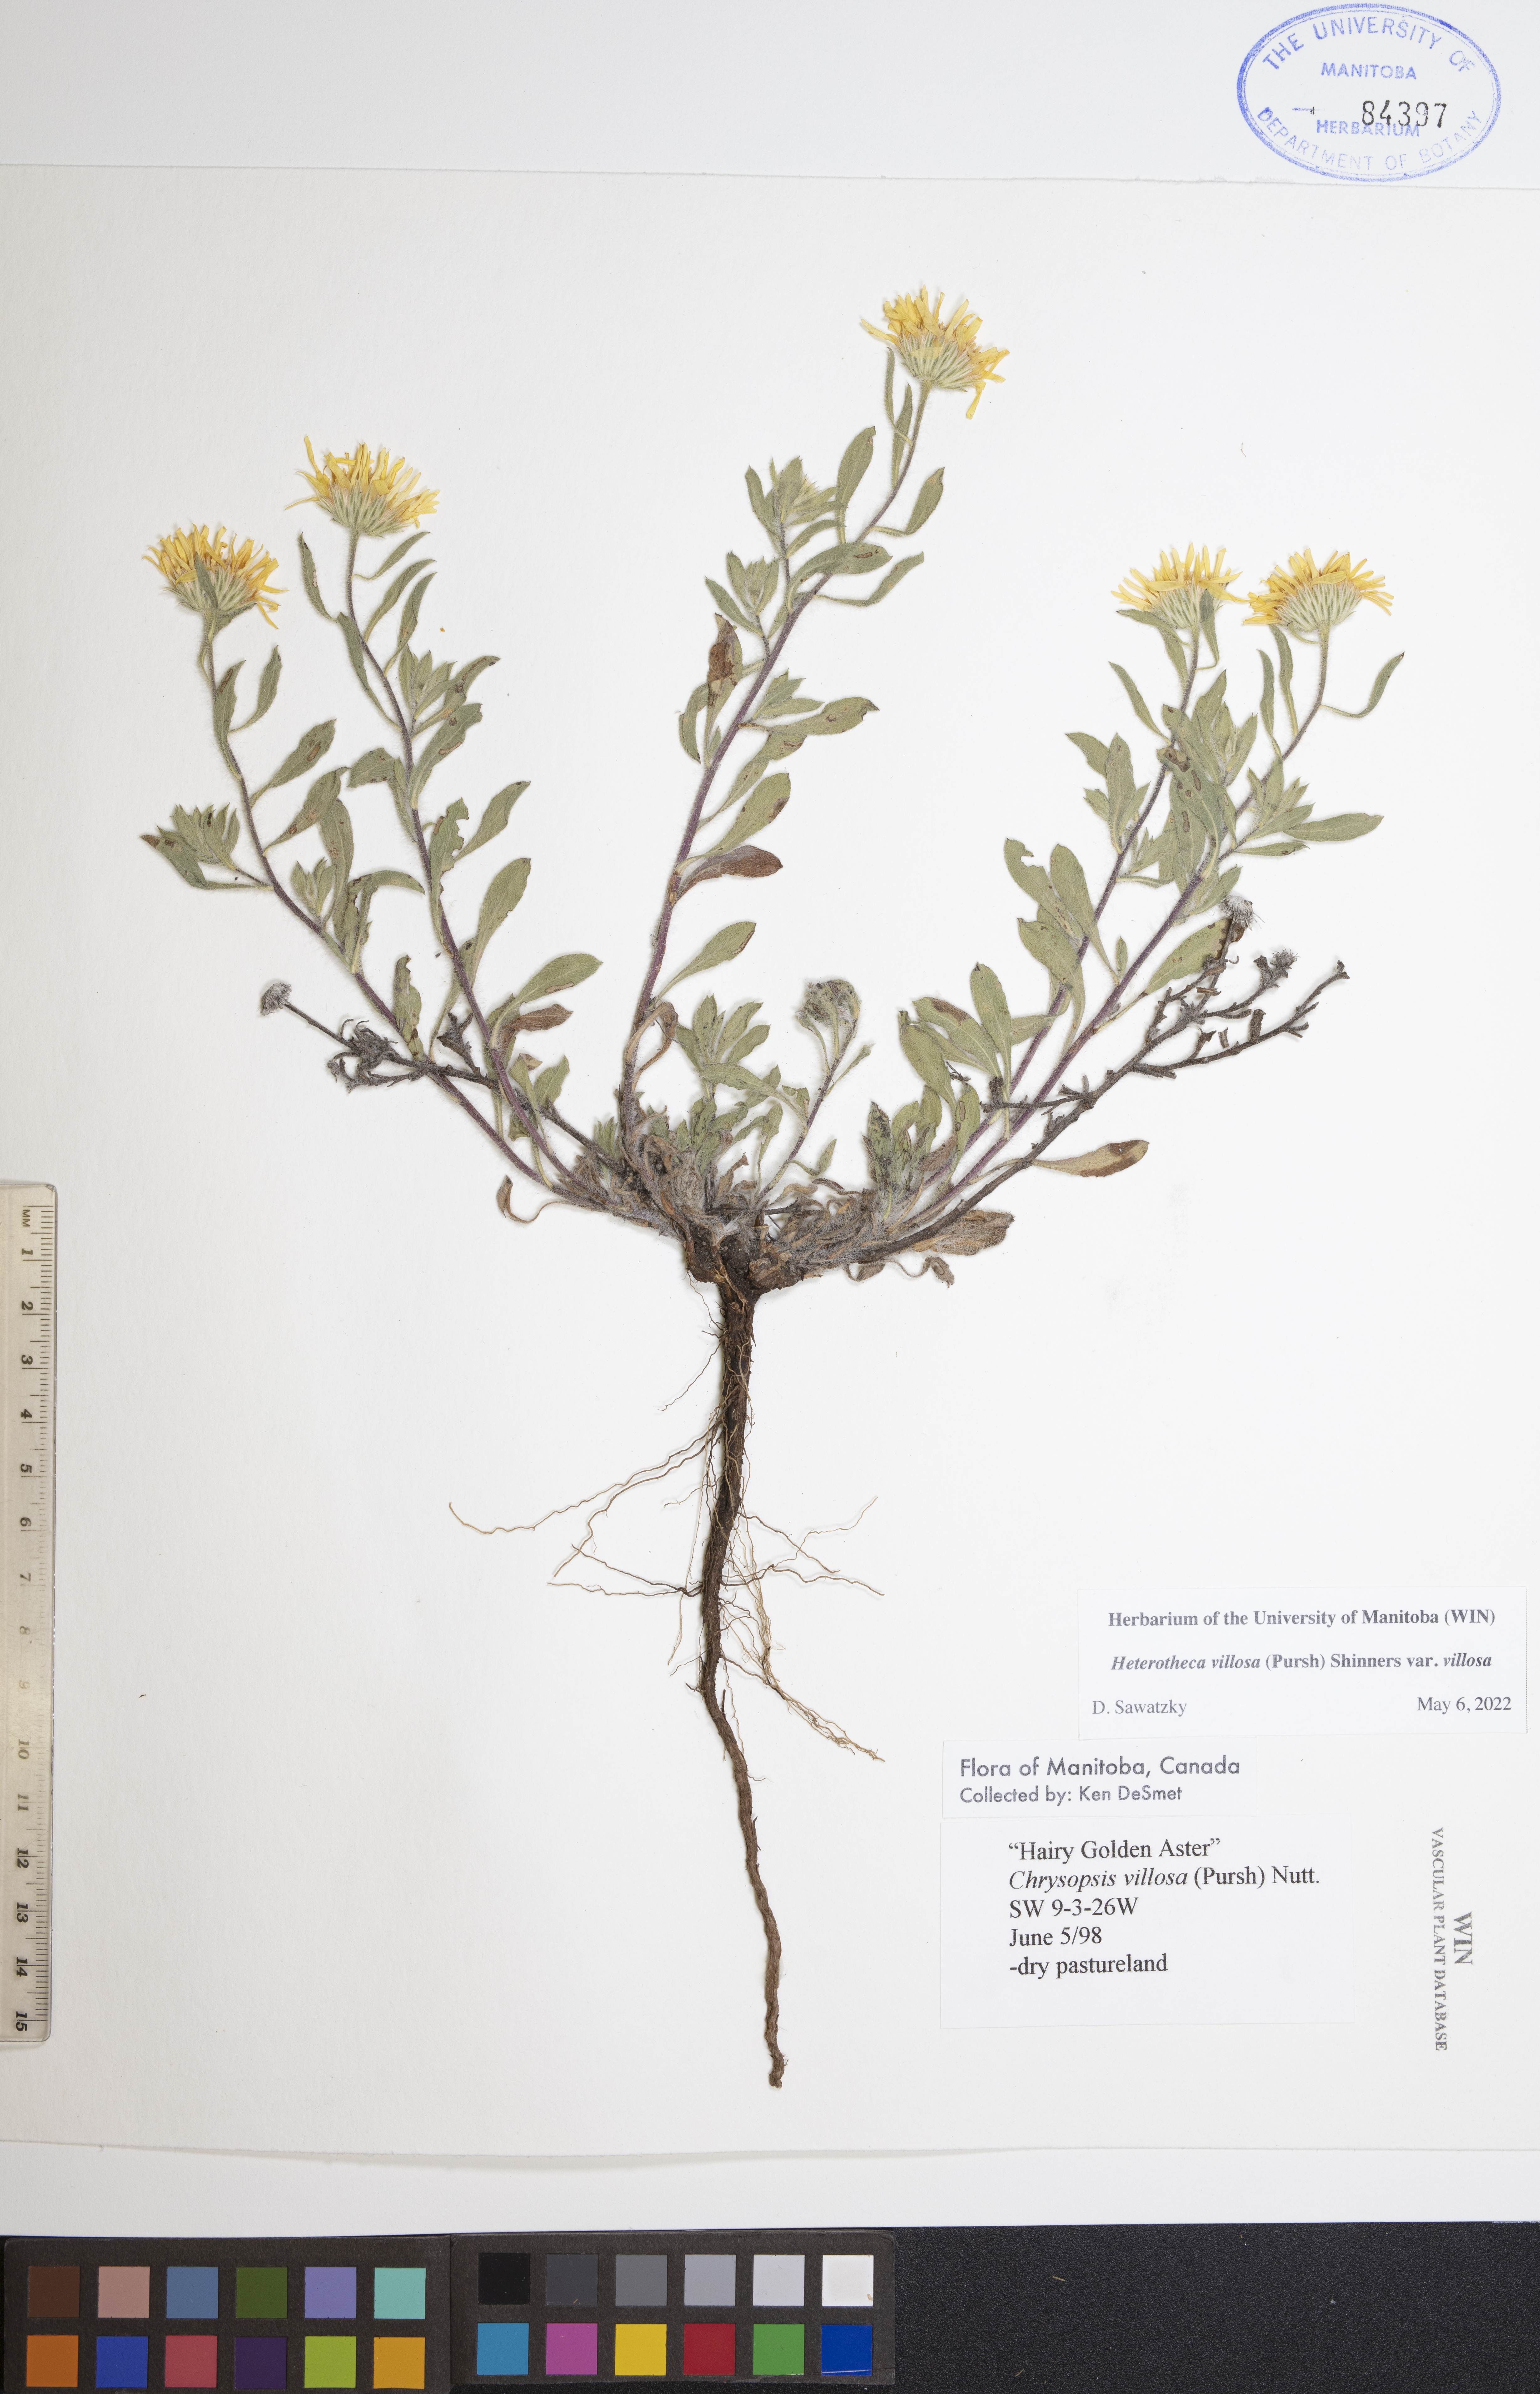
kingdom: Plantae
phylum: Tracheophyta
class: Magnoliopsida
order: Asterales
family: Asteraceae
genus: Heterotheca
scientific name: Heterotheca villosa
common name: Hairy false goldenaster
